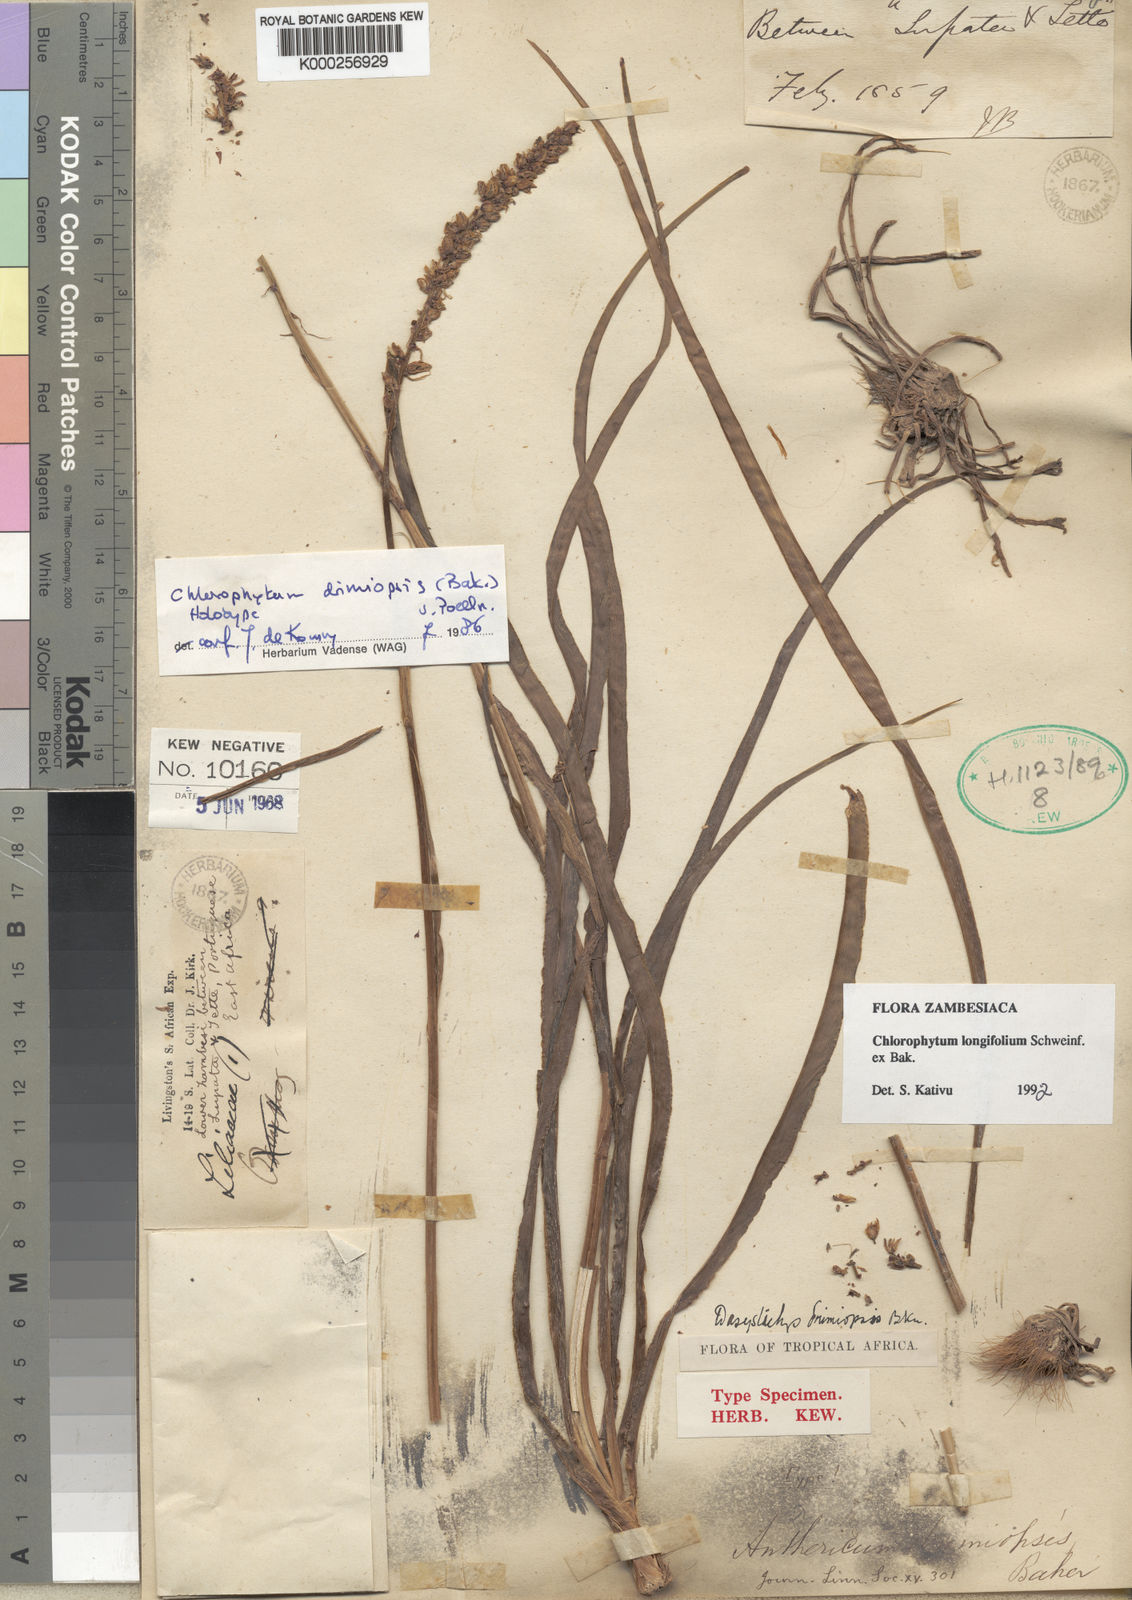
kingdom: Plantae
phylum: Tracheophyta
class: Liliopsida
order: Asparagales
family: Asparagaceae
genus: Chlorophytum
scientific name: Chlorophytum longifolium
